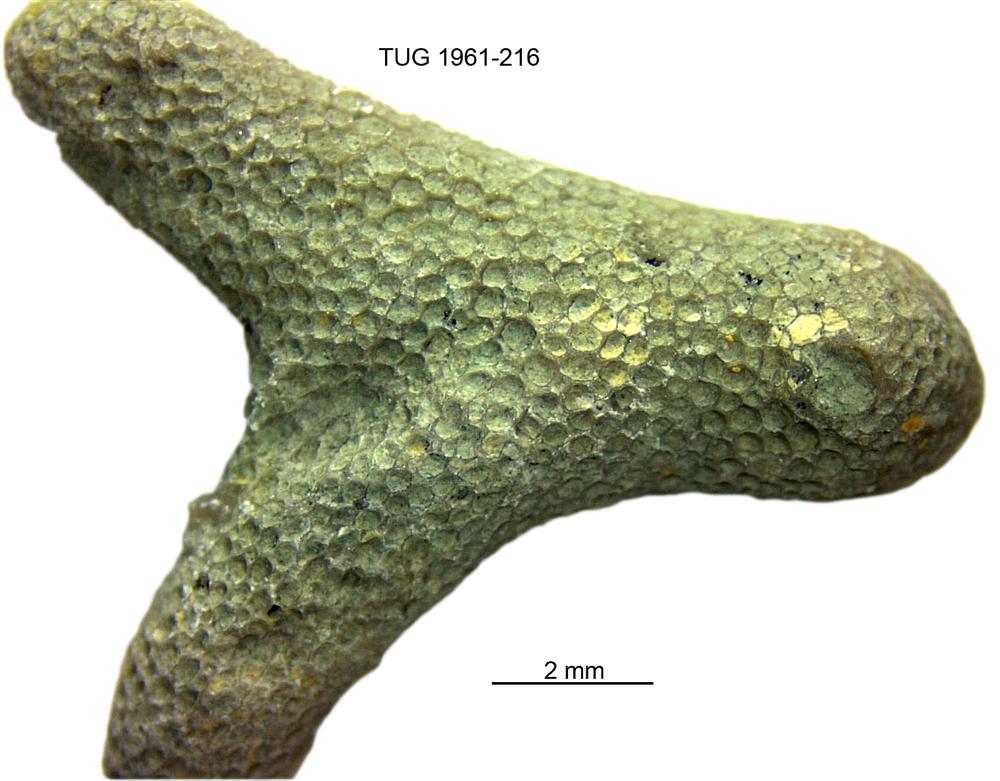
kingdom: Animalia
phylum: Bryozoa
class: Stenolaemata
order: Trepostomatida
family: Diplotrypidae
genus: Diplotrypa
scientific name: Diplotrypa
